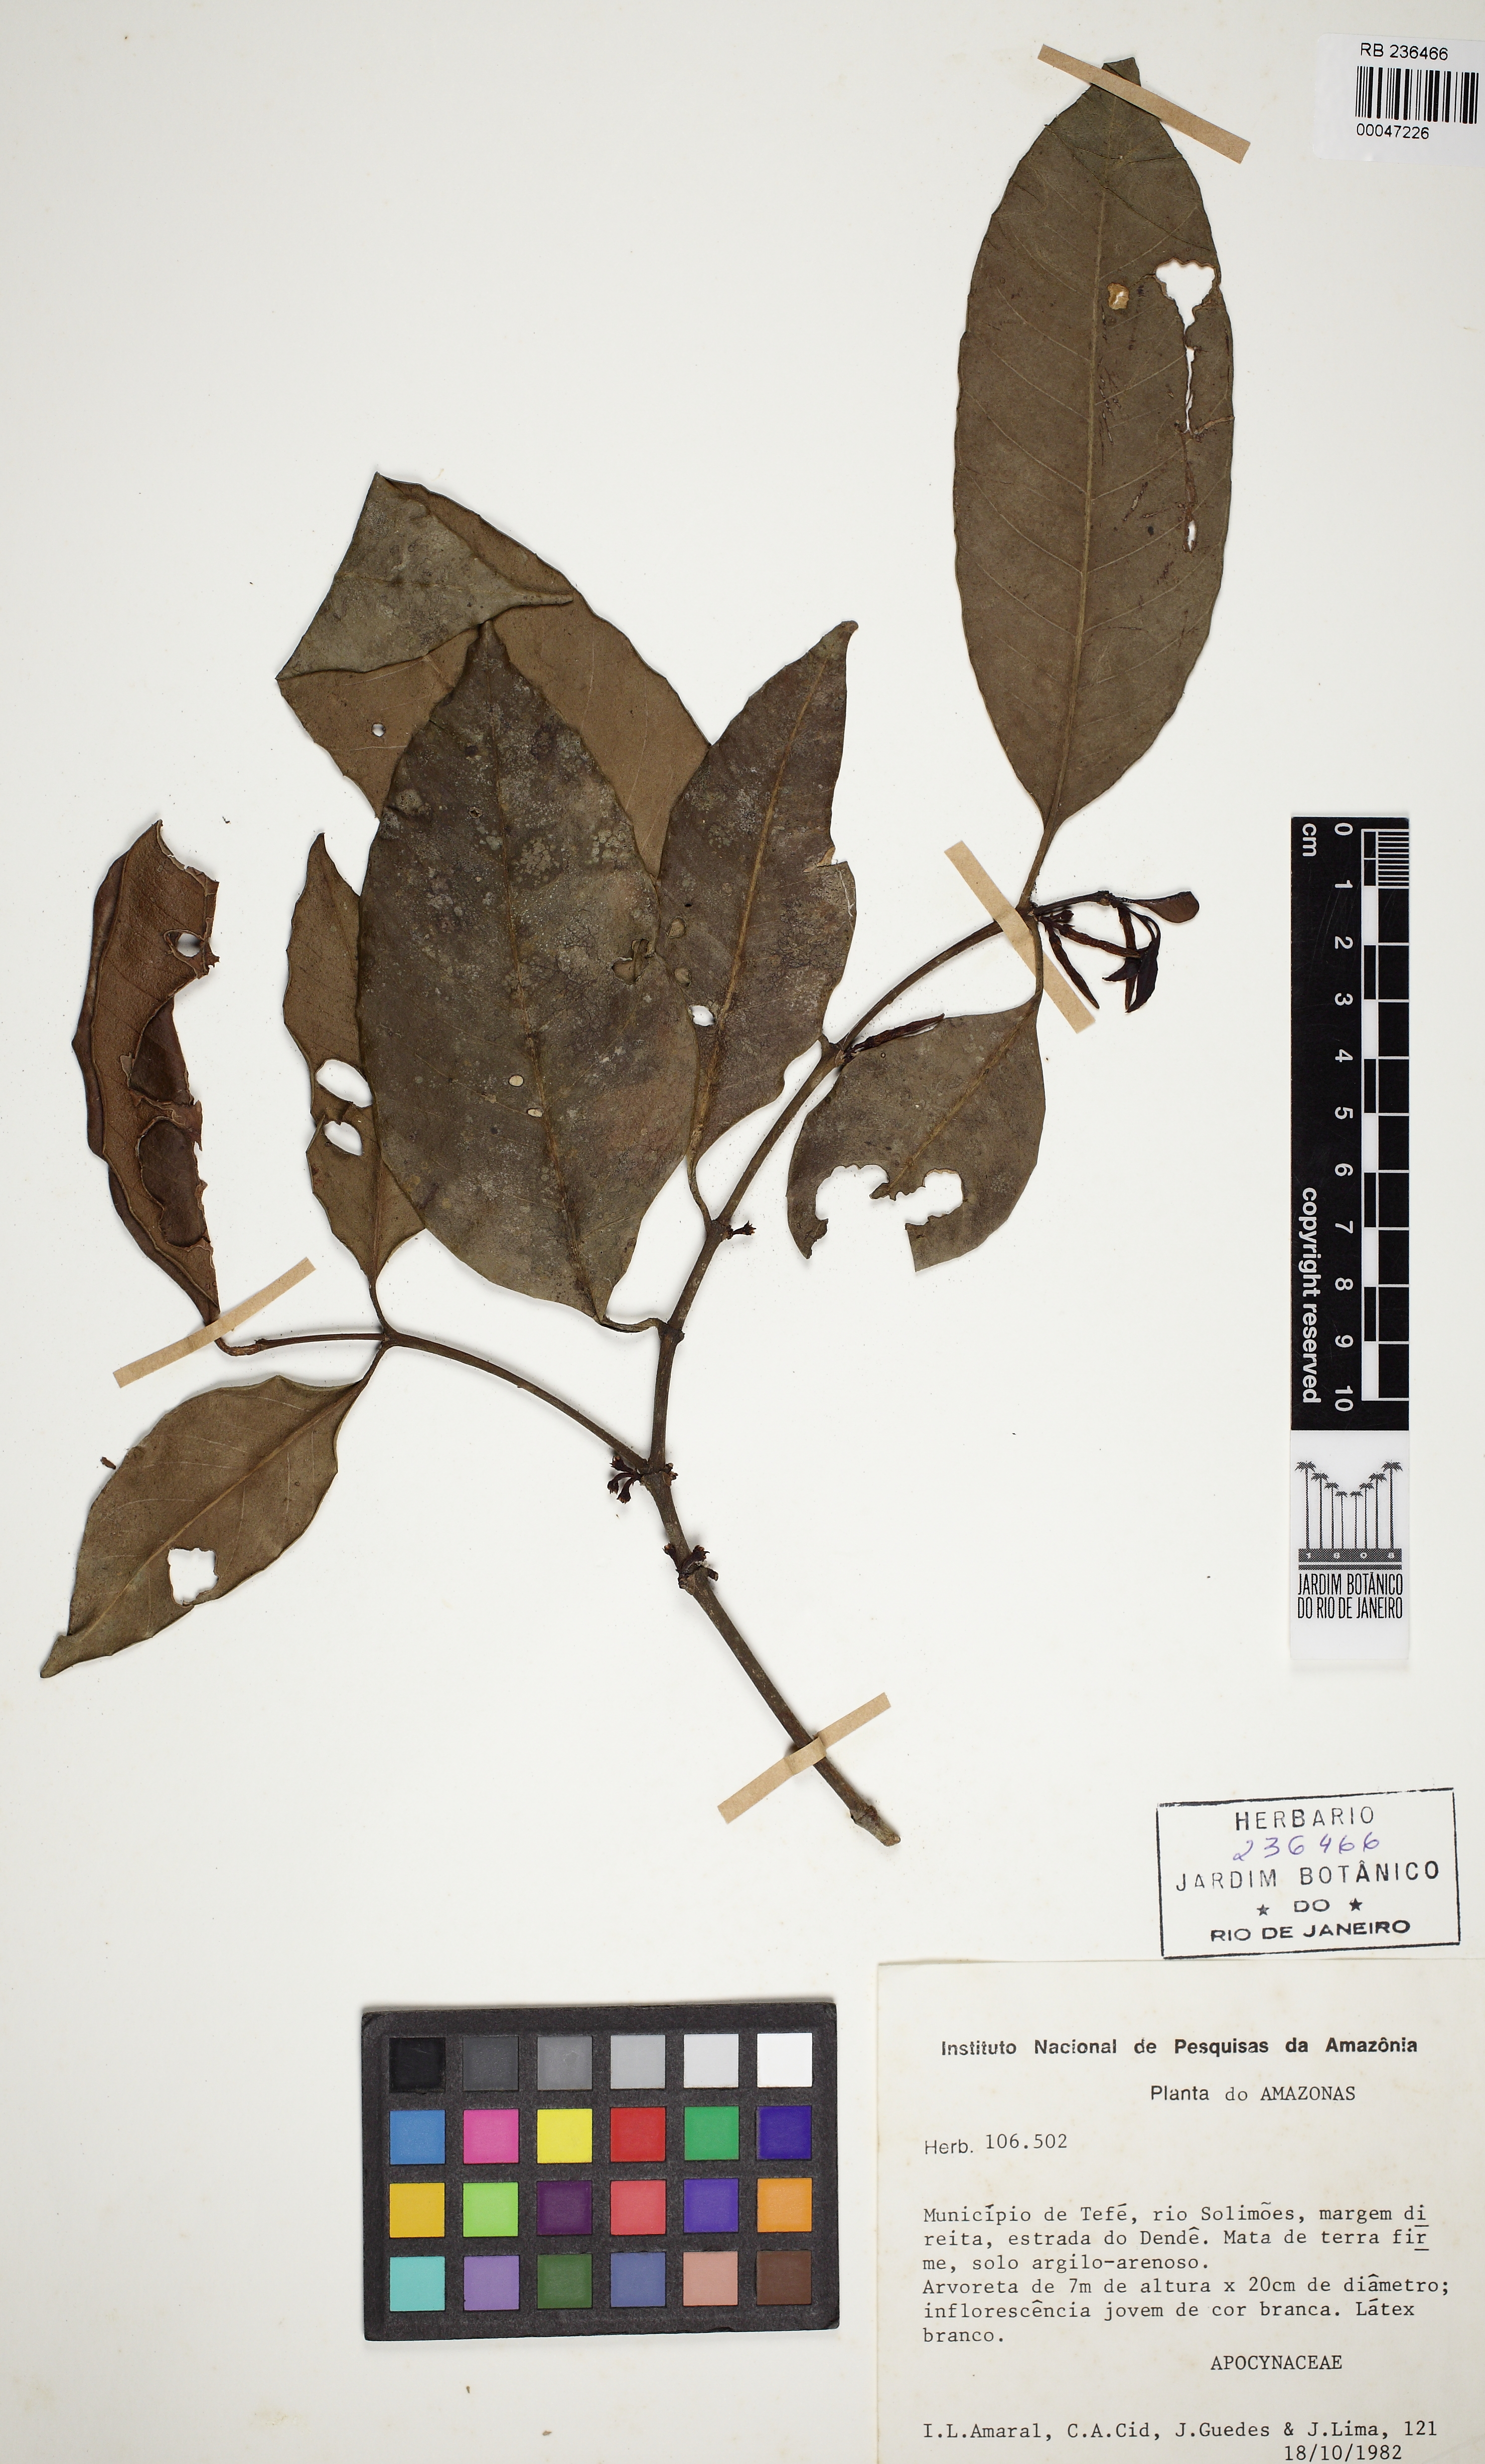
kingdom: Plantae
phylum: Tracheophyta
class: Magnoliopsida
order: Gentianales
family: Apocynaceae
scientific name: Apocynaceae
